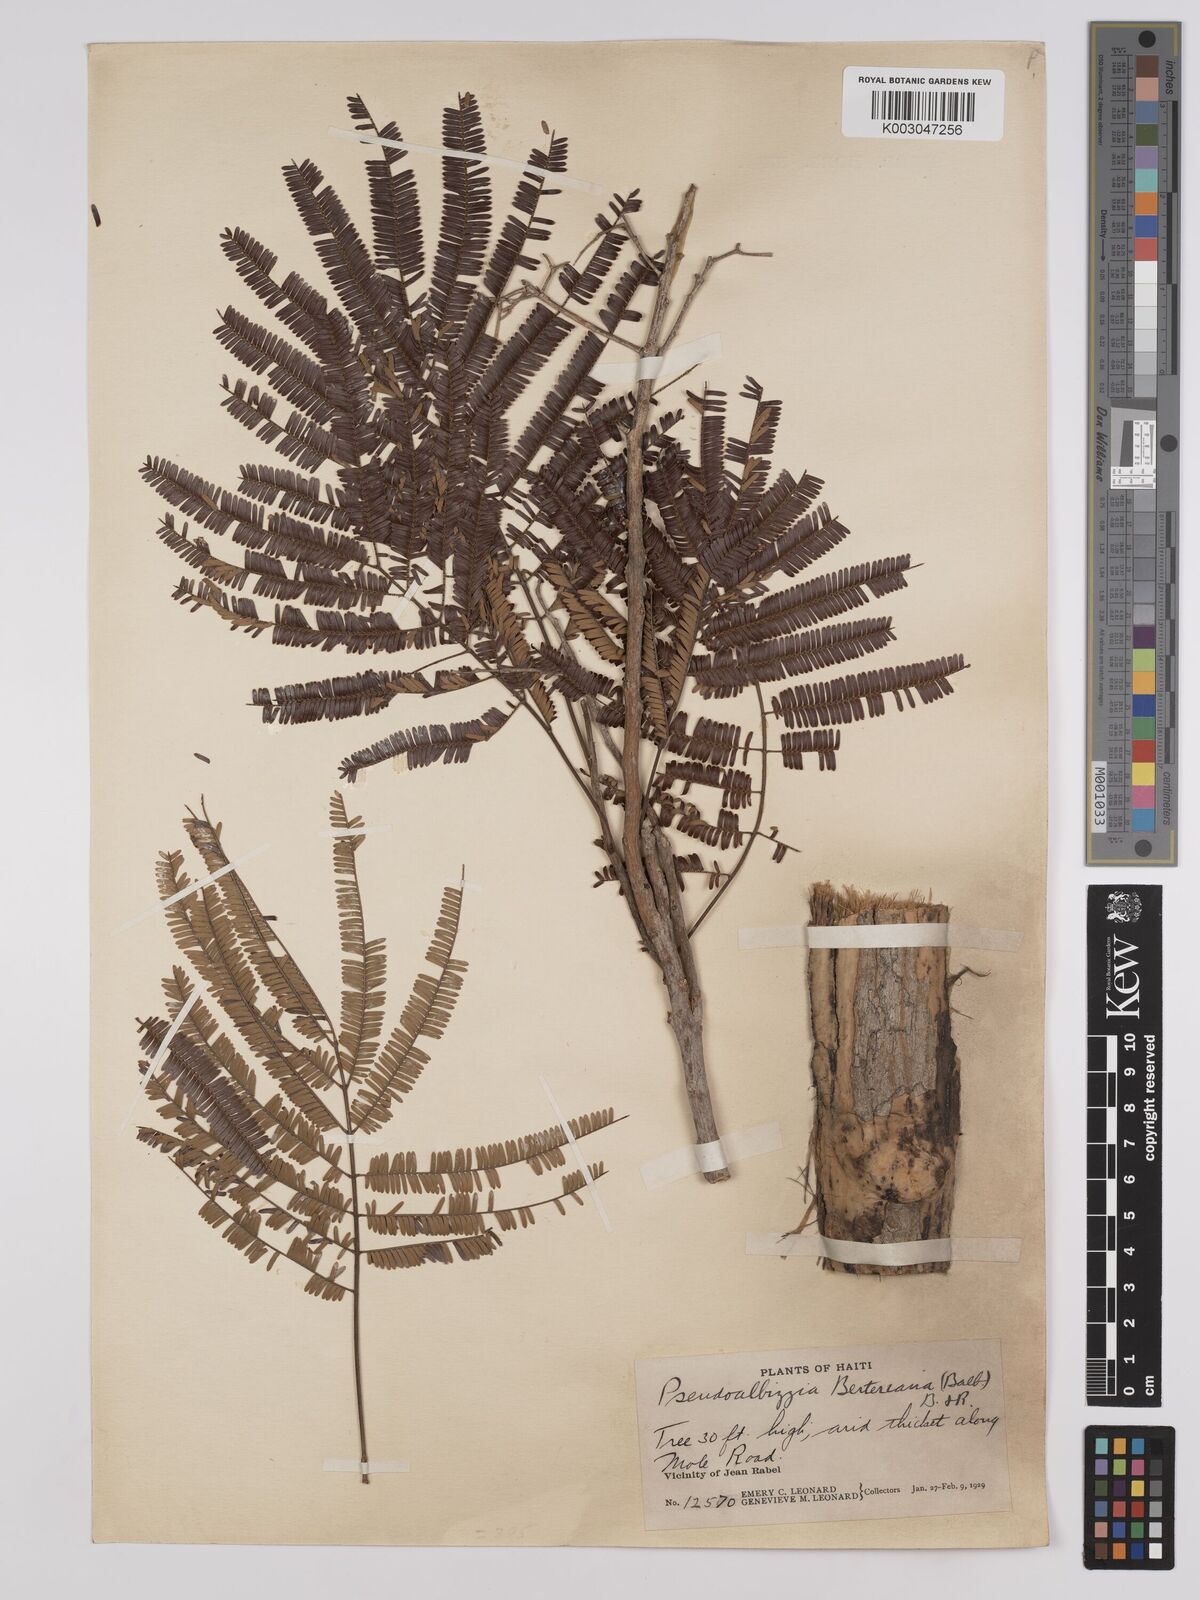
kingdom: Plantae
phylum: Tracheophyta
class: Magnoliopsida
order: Fabales
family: Fabaceae
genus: Albizia
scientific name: Albizia niopoides
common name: Silk tree
